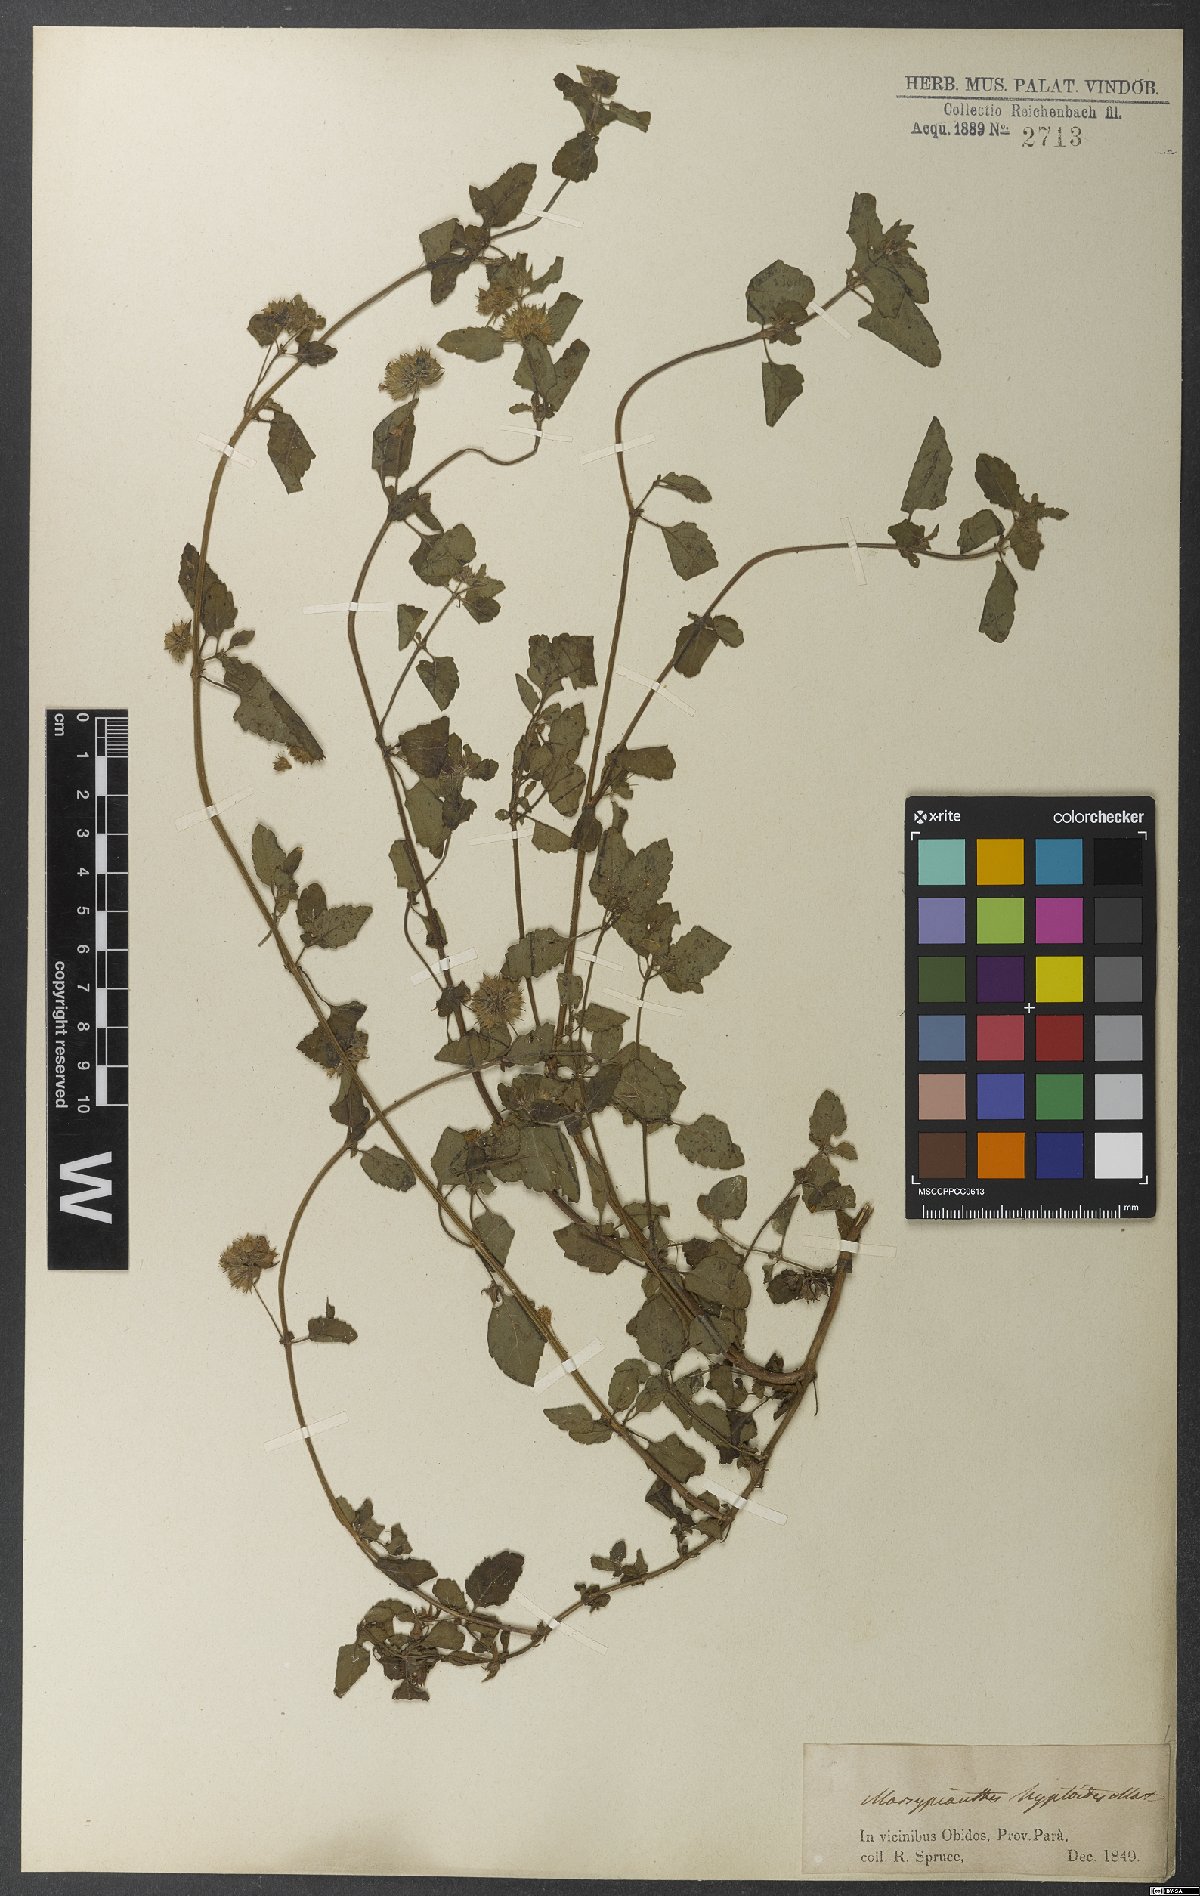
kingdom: Plantae
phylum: Tracheophyta
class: Magnoliopsida
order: Lamiales
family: Lamiaceae
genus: Marsypianthes
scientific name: Marsypianthes chamaedrys
